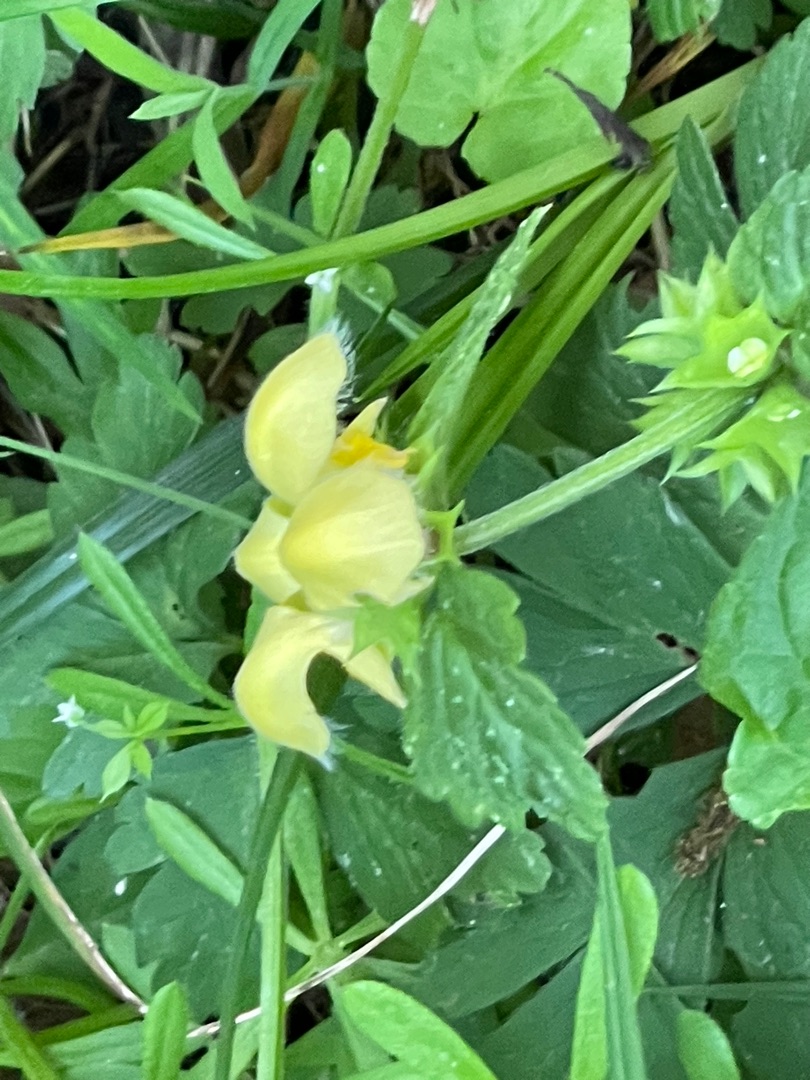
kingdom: Plantae
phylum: Tracheophyta
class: Magnoliopsida
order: Lamiales
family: Lamiaceae
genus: Lamium
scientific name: Lamium galeobdolon
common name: Guldnælde
